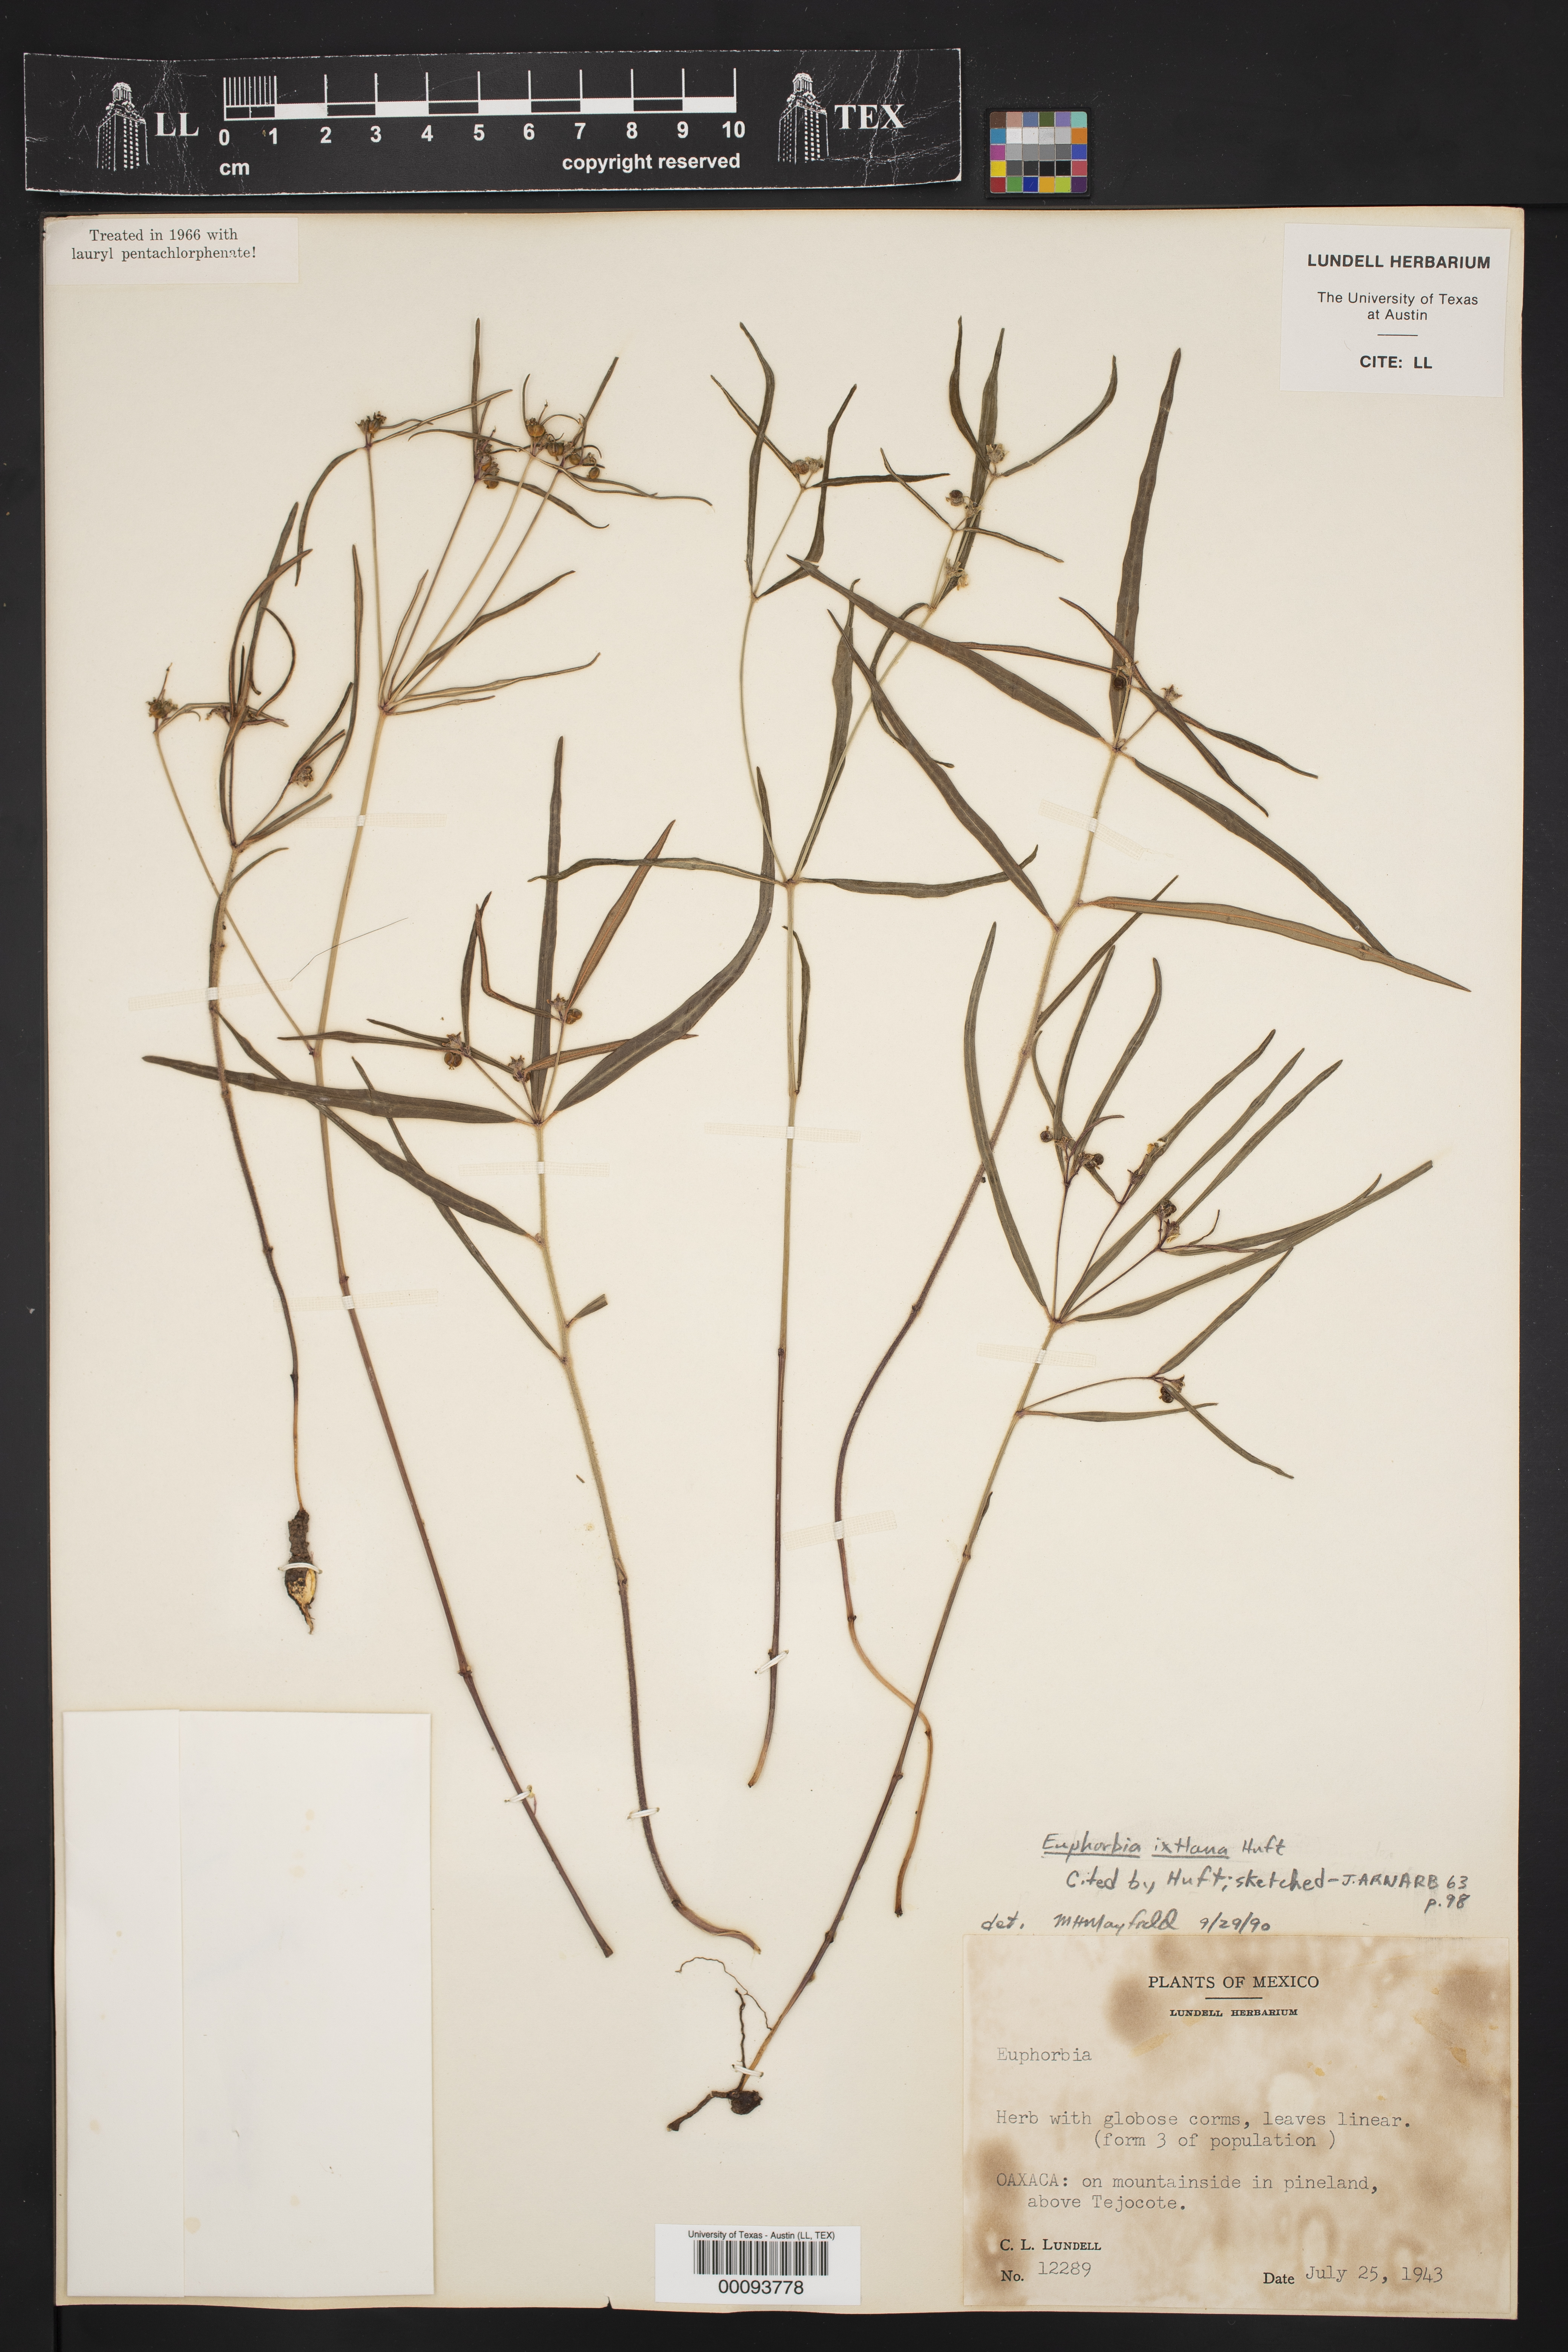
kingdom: Plantae
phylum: Tracheophyta
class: Magnoliopsida
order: Malpighiales
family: Euphorbiaceae
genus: Euphorbia
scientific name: Euphorbia ixtlana
